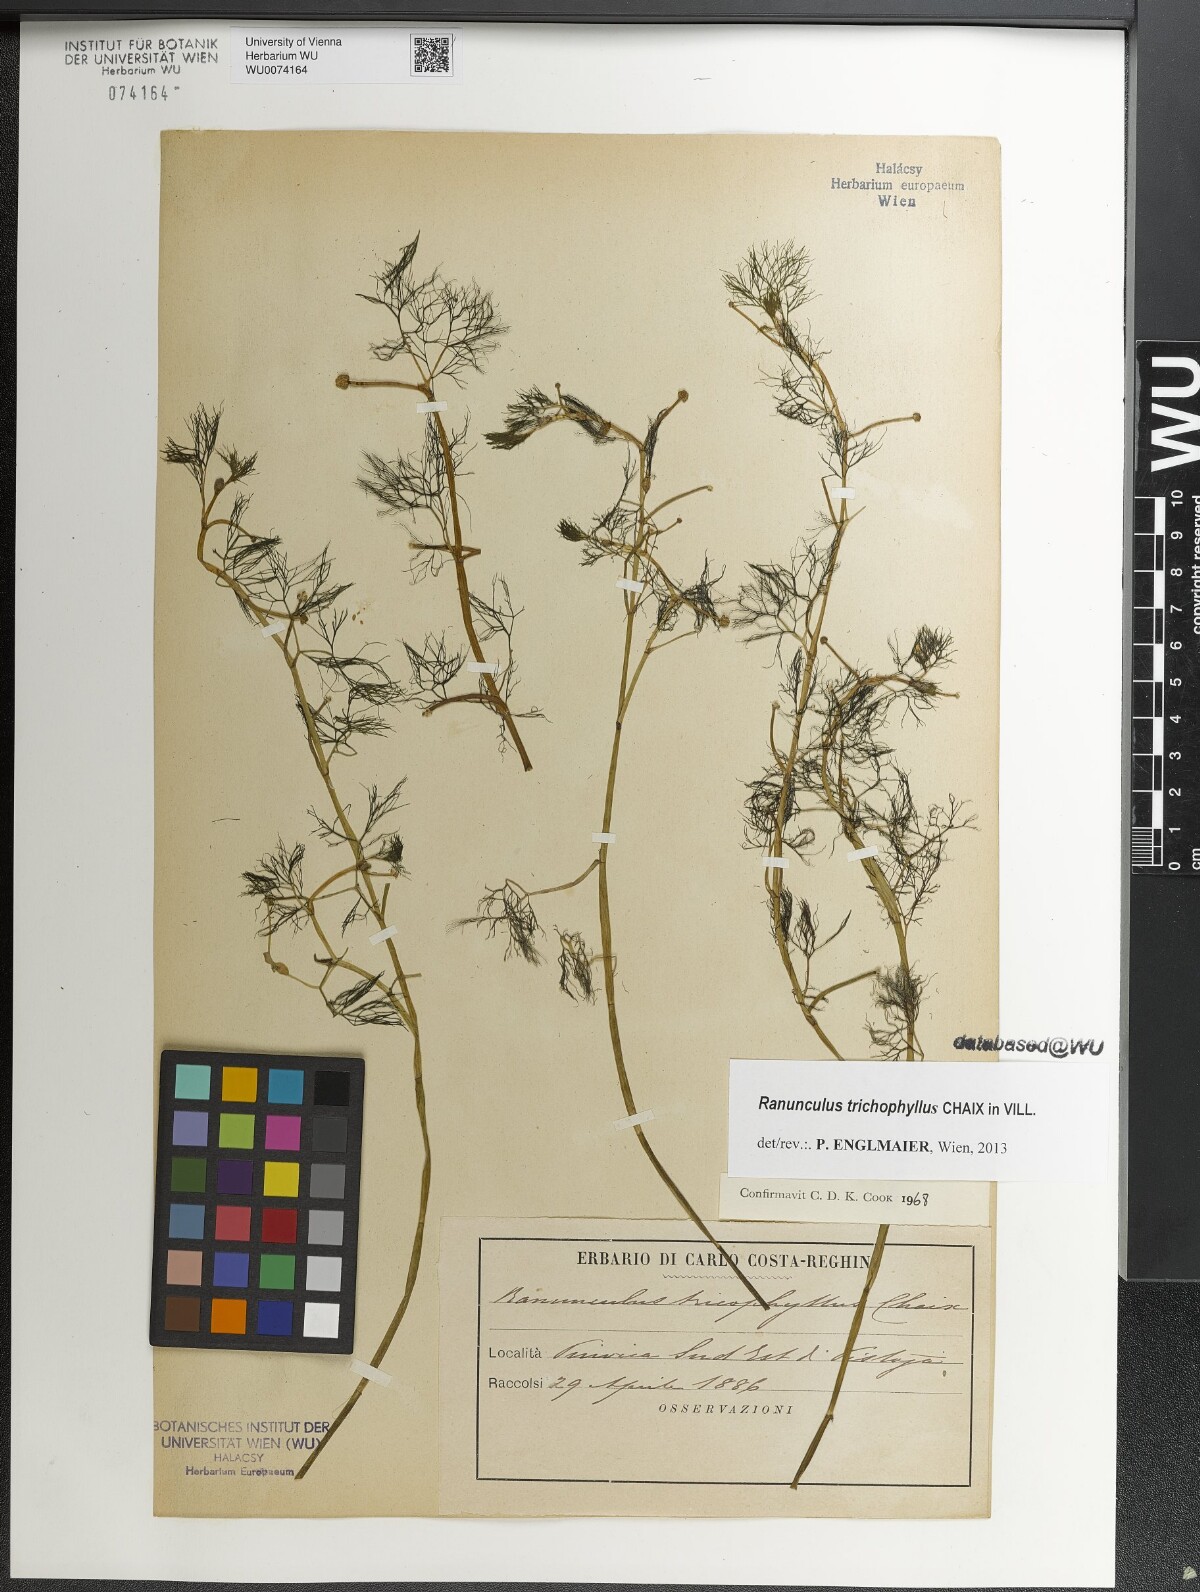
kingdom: Plantae
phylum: Tracheophyta
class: Magnoliopsida
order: Ranunculales
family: Ranunculaceae
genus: Ranunculus
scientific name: Ranunculus trichophyllus
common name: Thread-leaved water-crowfoot
